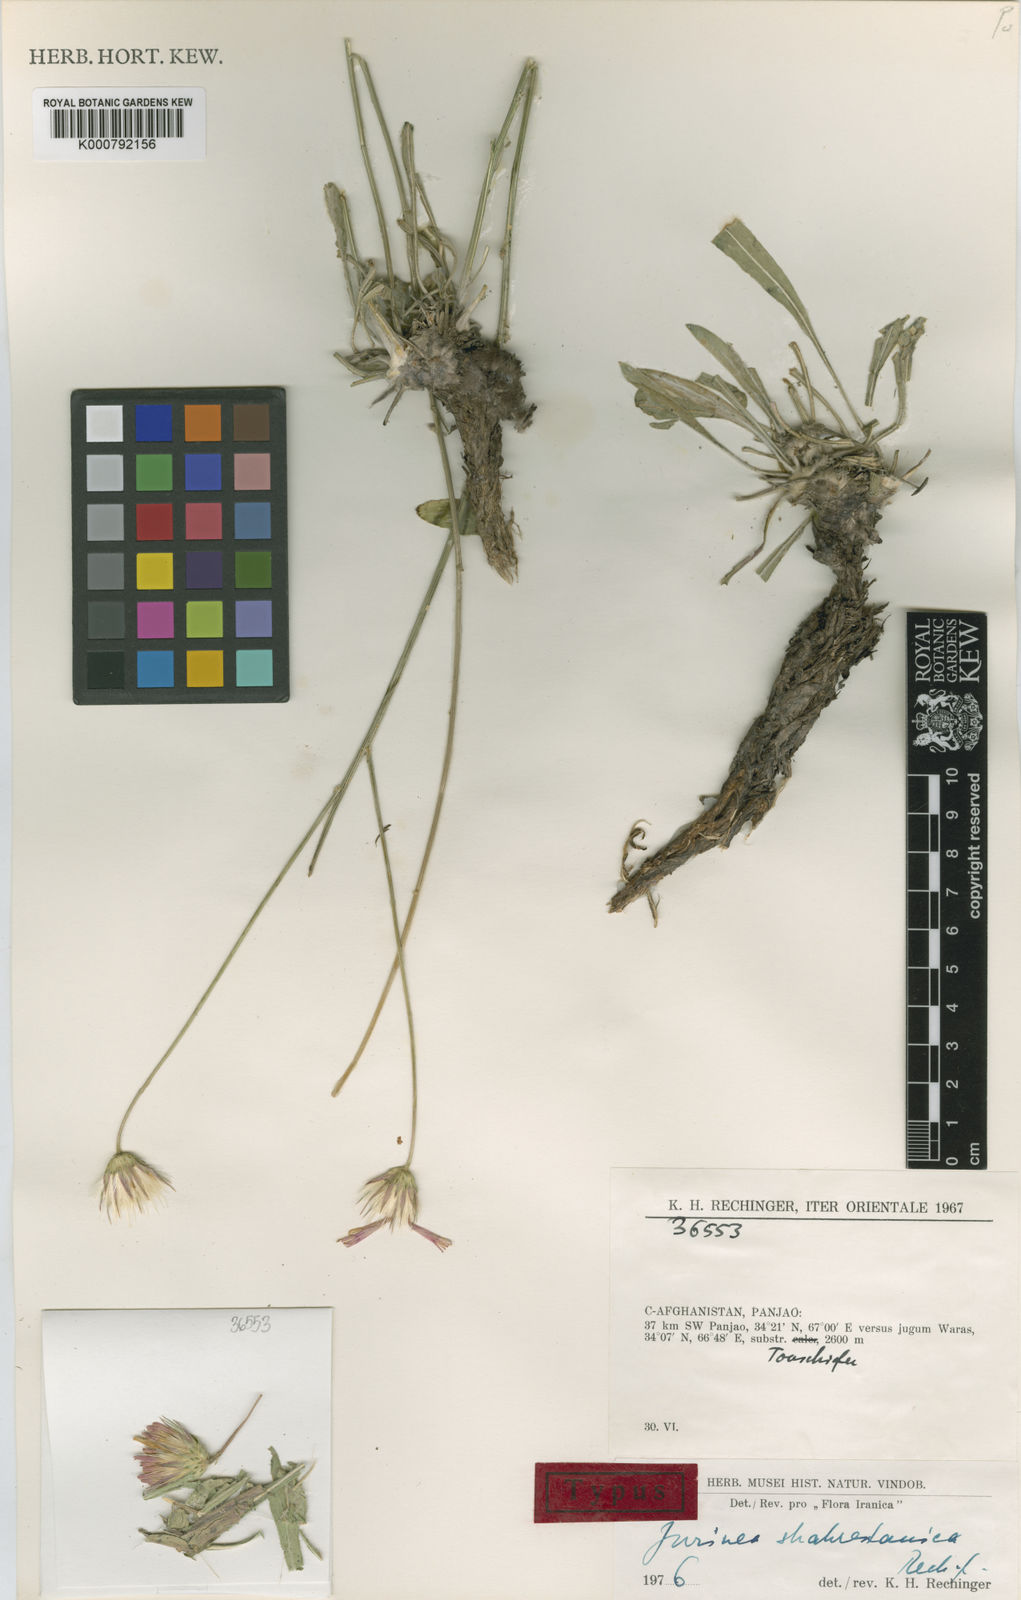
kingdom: Plantae
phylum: Tracheophyta
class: Magnoliopsida
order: Asterales
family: Asteraceae
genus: Jurinea
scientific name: Jurinea shahrestanica
